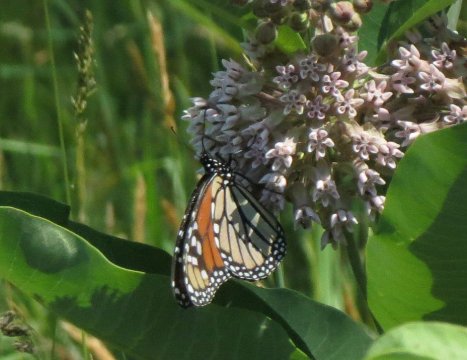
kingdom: Animalia
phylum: Arthropoda
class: Insecta
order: Lepidoptera
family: Nymphalidae
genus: Danaus
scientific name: Danaus plexippus
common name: Monarch
